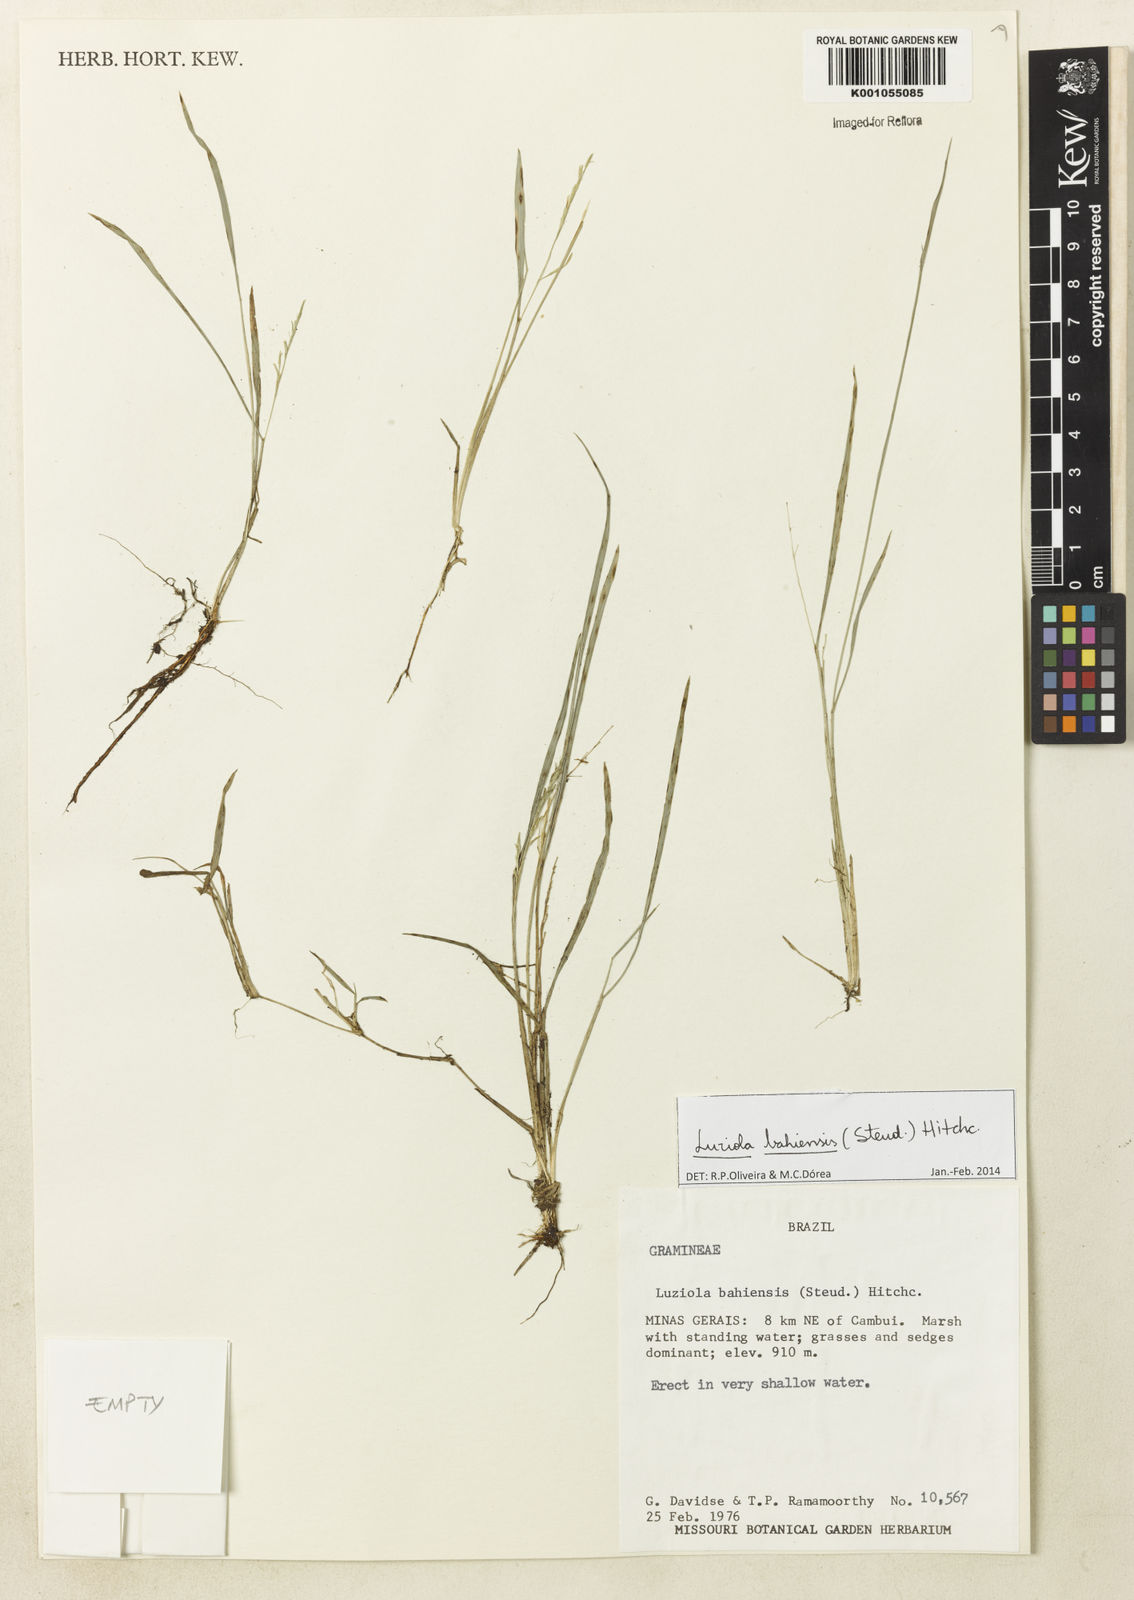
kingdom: Plantae
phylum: Tracheophyta
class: Liliopsida
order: Poales
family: Poaceae
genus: Luziola
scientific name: Luziola bahiensis
